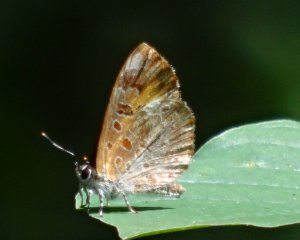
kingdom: Animalia
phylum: Arthropoda
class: Insecta
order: Lepidoptera
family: Lycaenidae
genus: Feniseca
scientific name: Feniseca tarquinius
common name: Harvester
